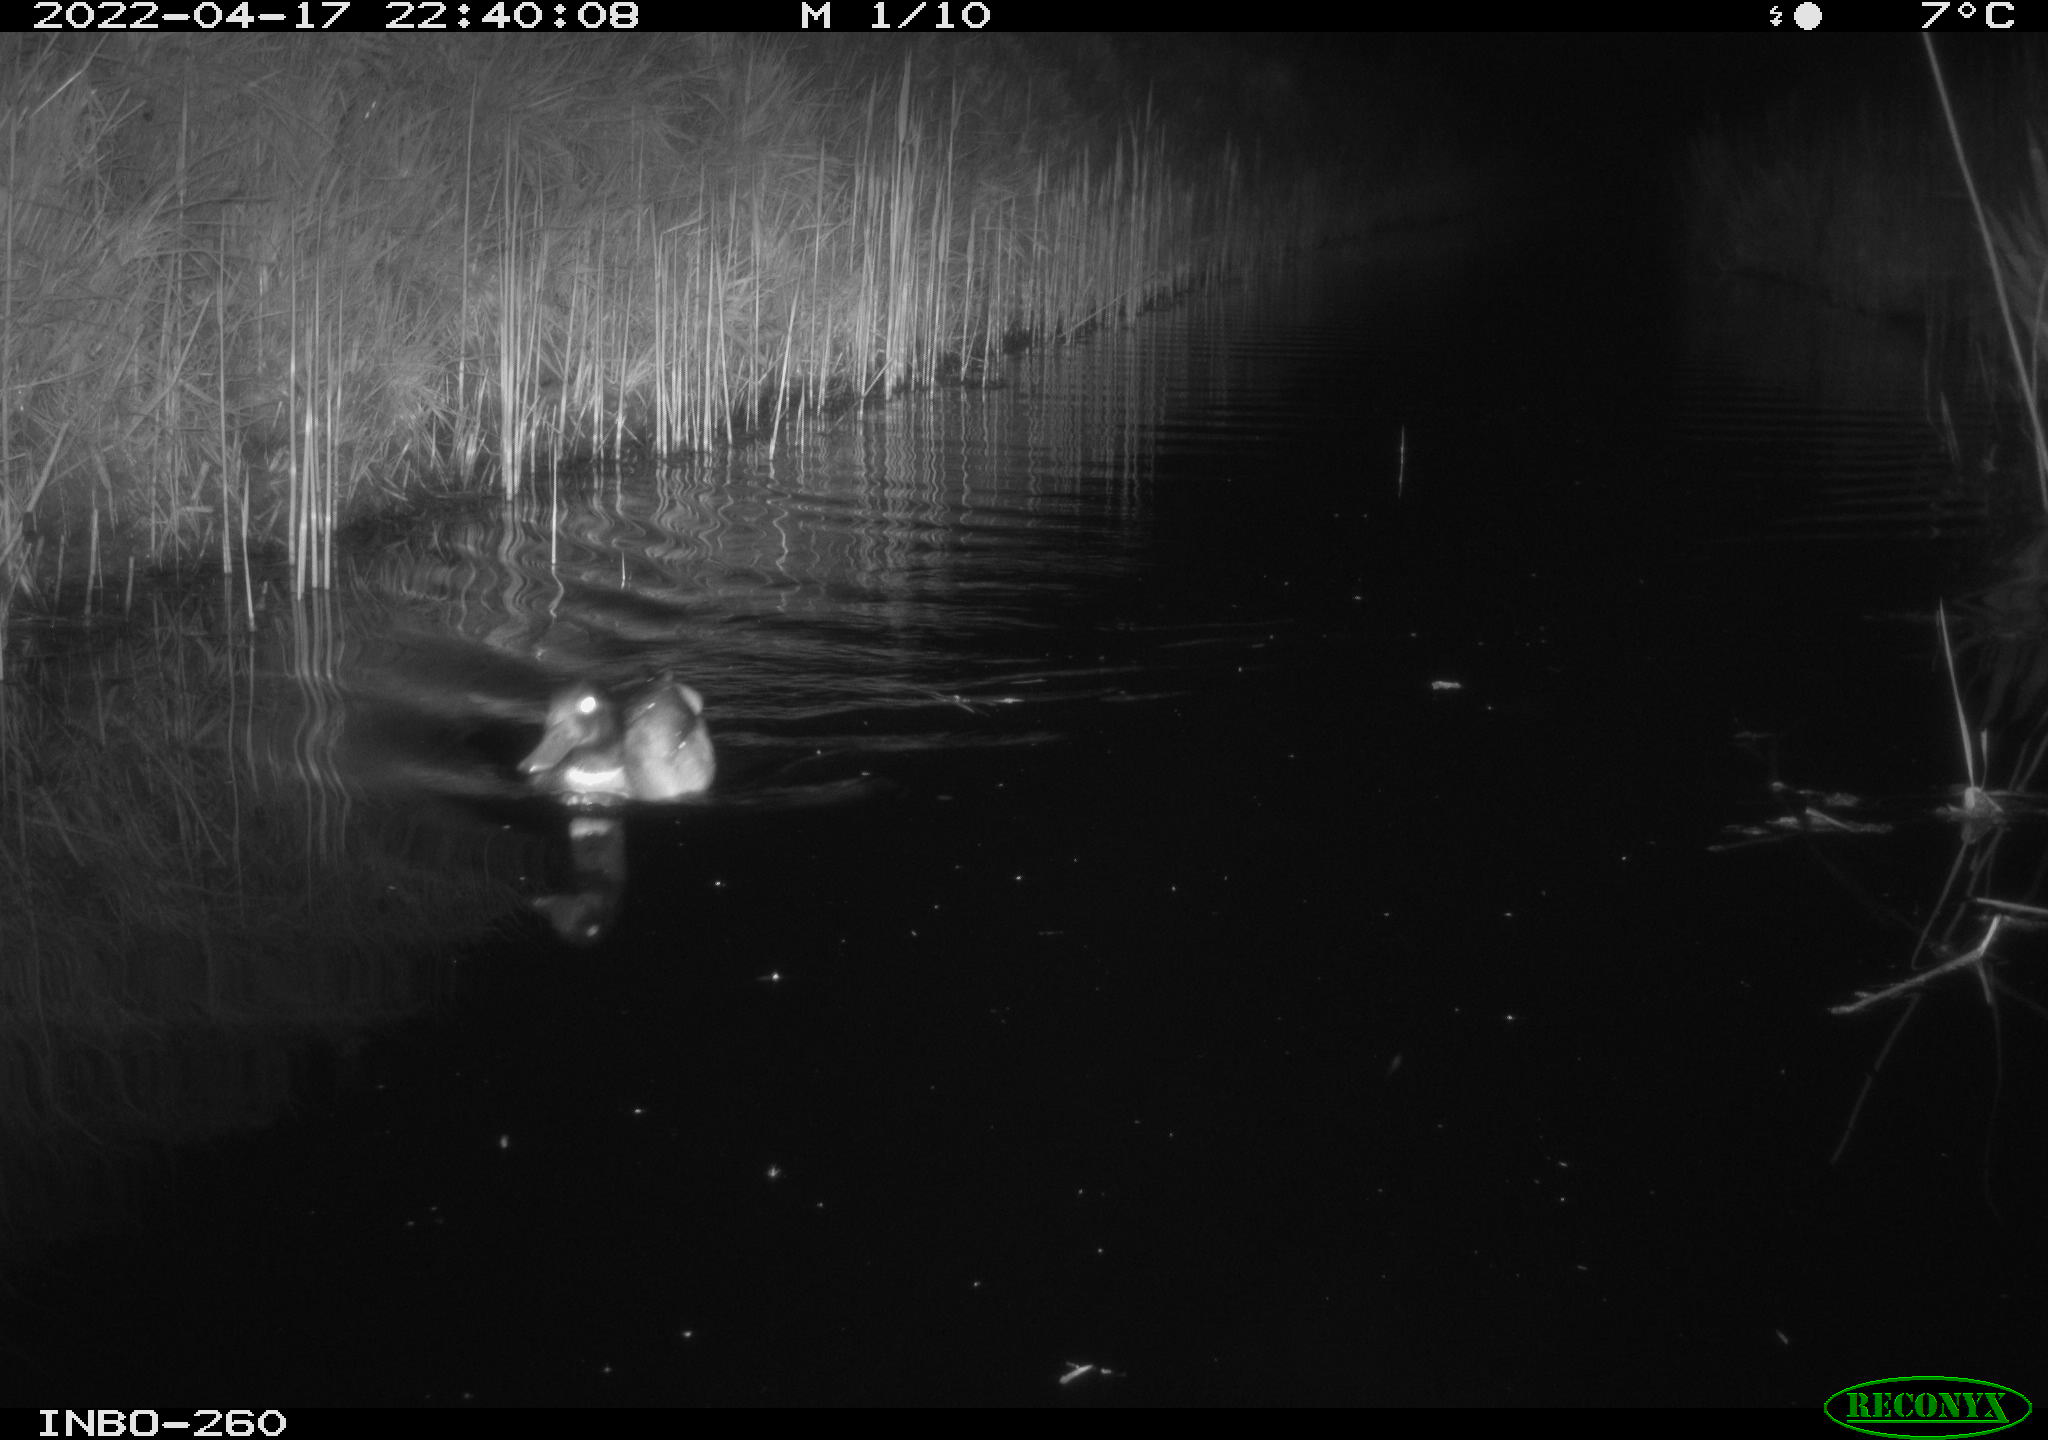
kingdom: Animalia
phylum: Chordata
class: Aves
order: Anseriformes
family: Anatidae
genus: Anas
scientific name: Anas platyrhynchos
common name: Mallard
